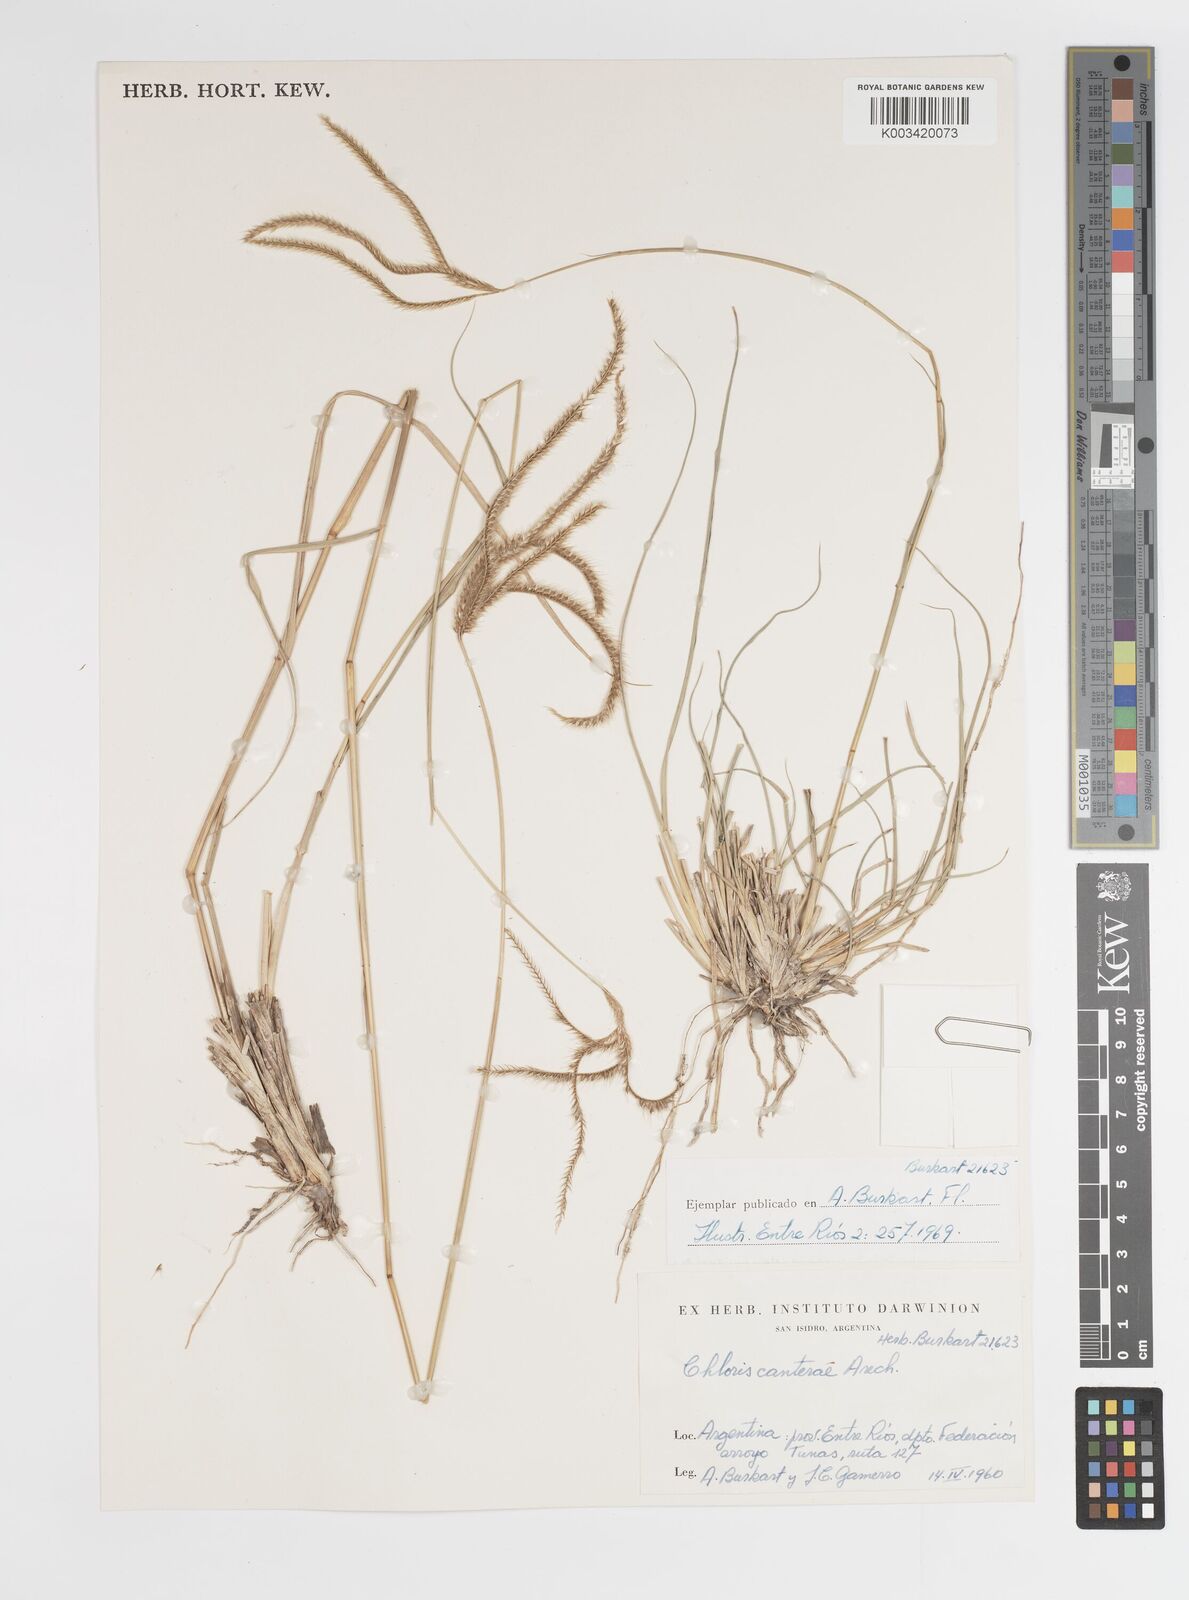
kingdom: Plantae
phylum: Tracheophyta
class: Liliopsida
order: Poales
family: Poaceae
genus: Stapfochloa
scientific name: Stapfochloa canterae
